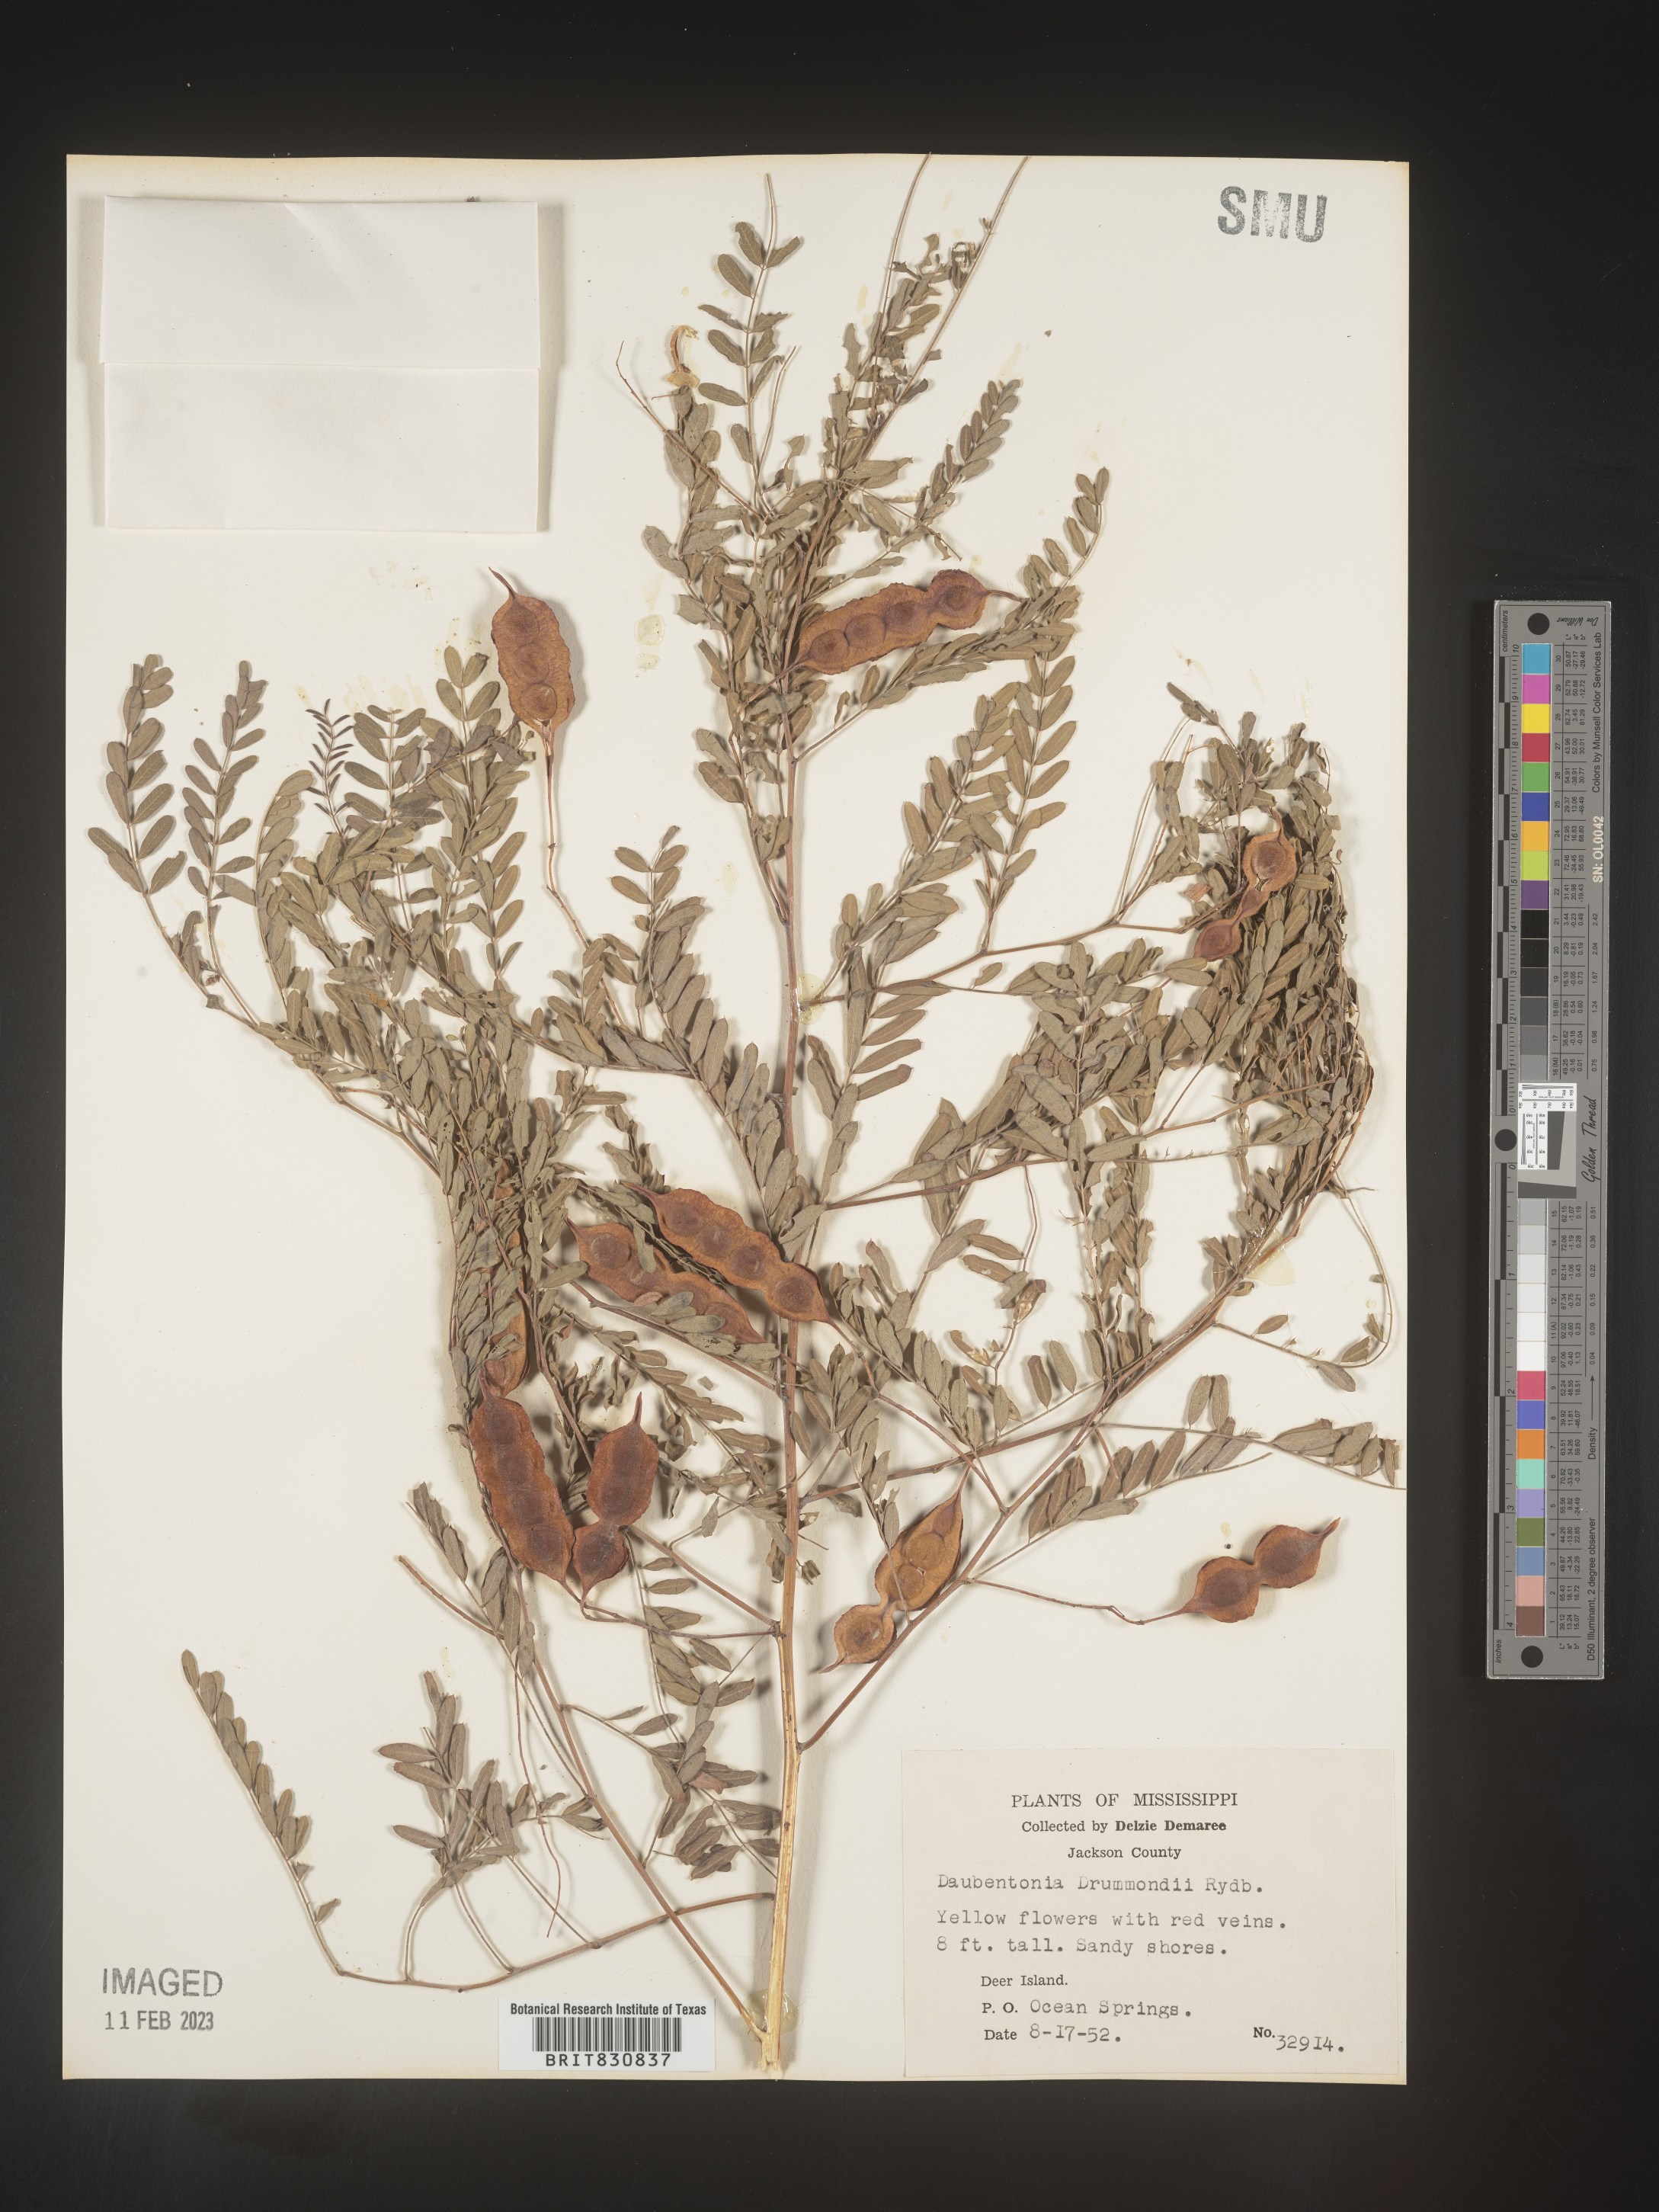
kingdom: Plantae
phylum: Tracheophyta
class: Magnoliopsida
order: Fabales
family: Fabaceae
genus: Sesbania
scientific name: Sesbania drummondii
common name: Poison-bean
